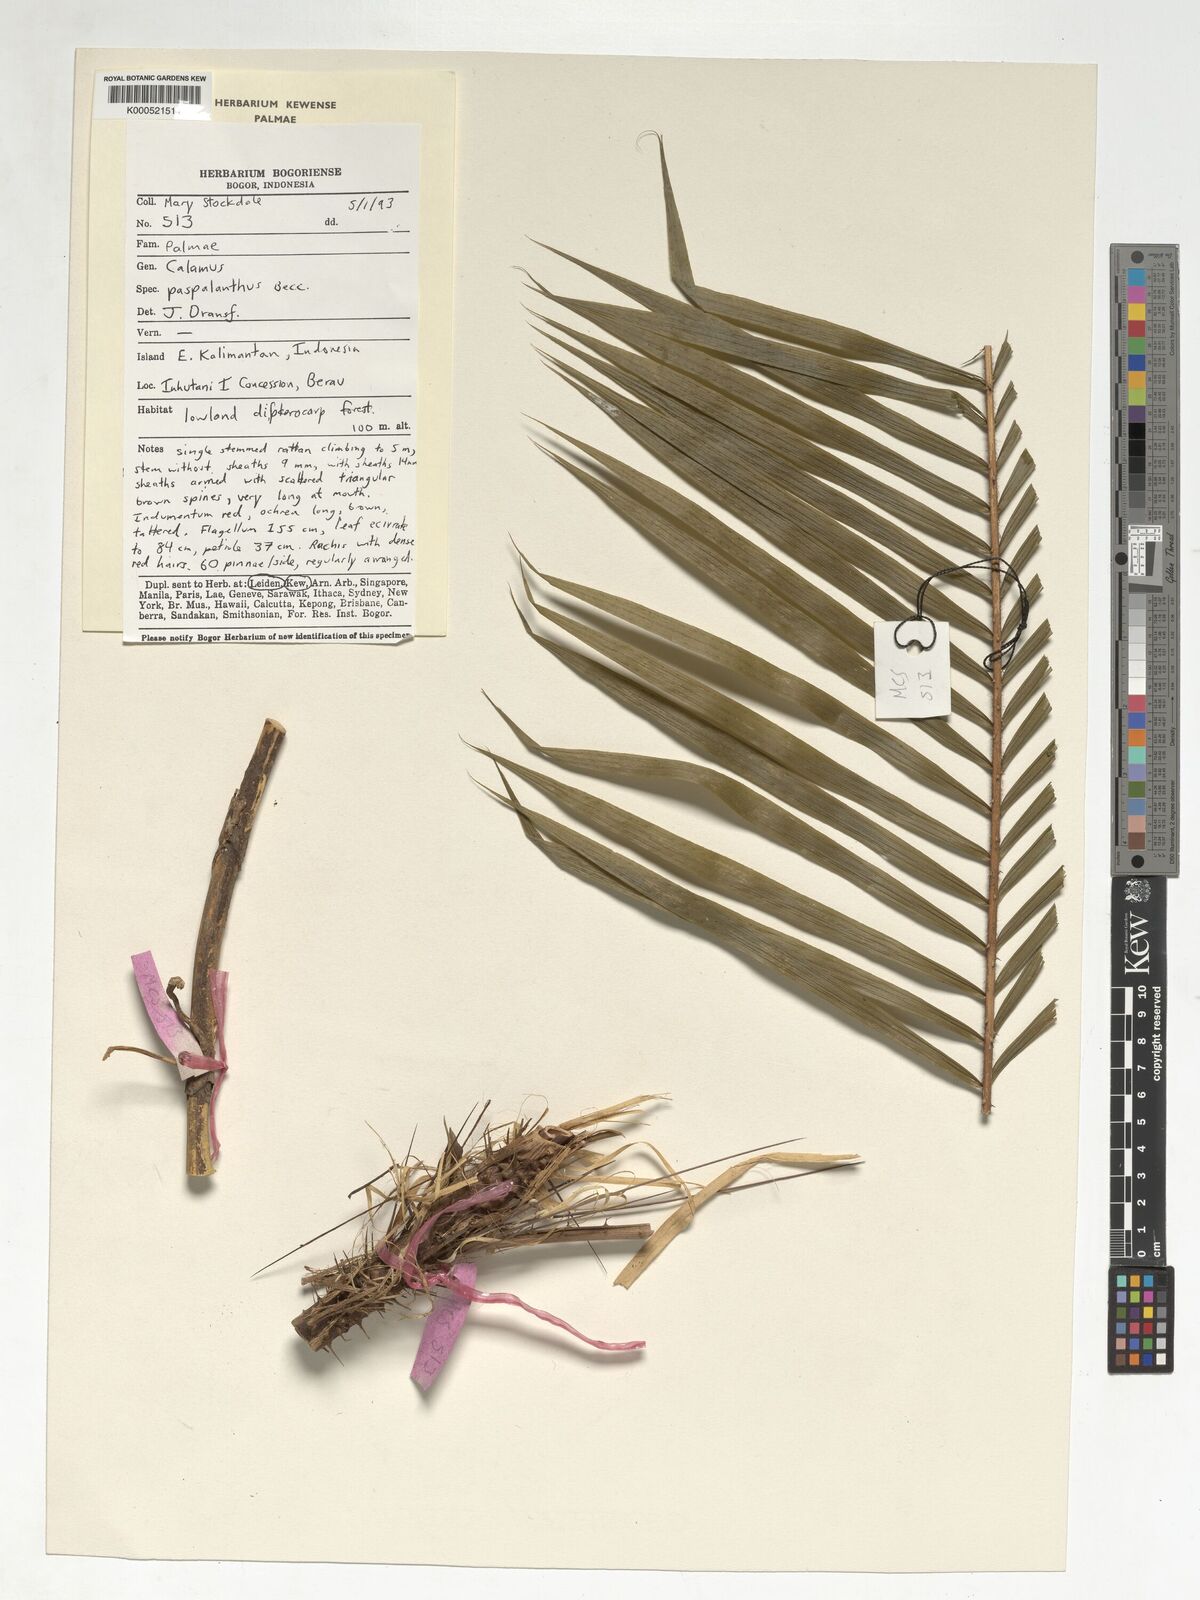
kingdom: Plantae
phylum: Tracheophyta
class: Liliopsida
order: Arecales
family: Arecaceae
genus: Calamus
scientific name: Calamus paspalanthus
